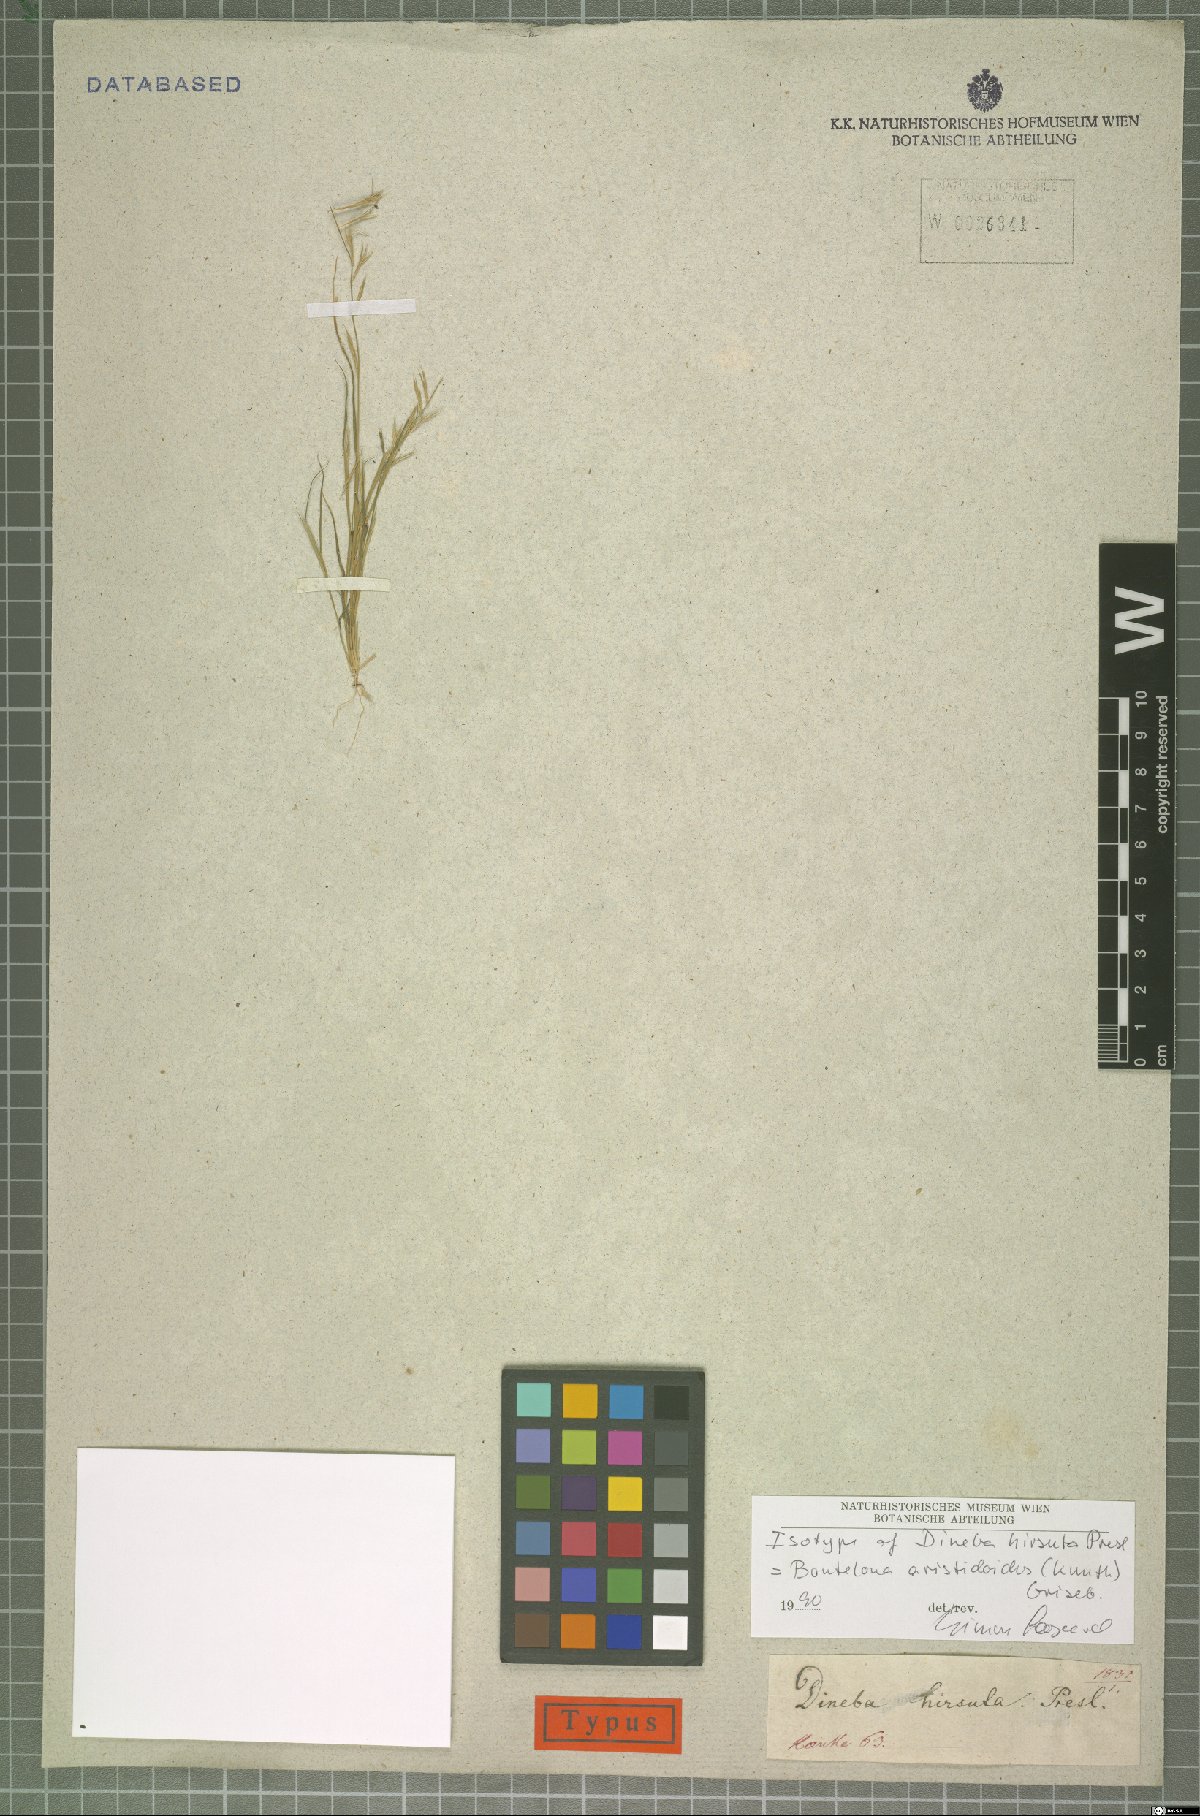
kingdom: Plantae
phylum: Tracheophyta
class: Liliopsida
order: Poales
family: Poaceae
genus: Bouteloua
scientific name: Bouteloua aristidoides
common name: Needle grama
